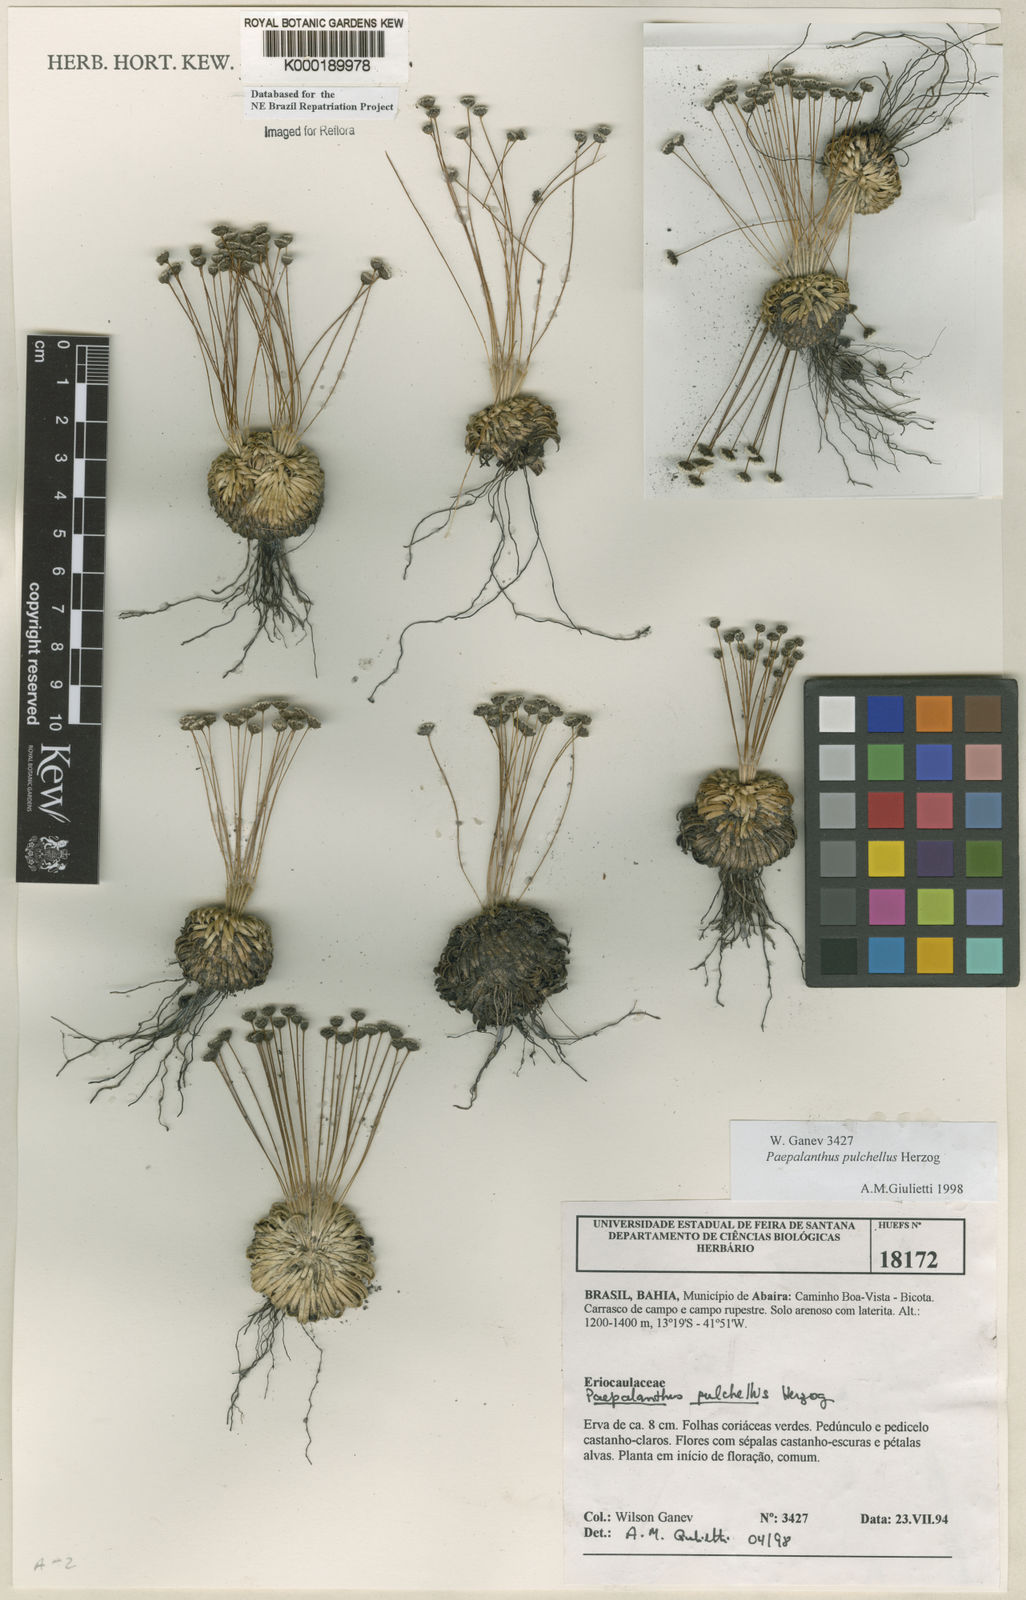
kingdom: Plantae
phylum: Tracheophyta
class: Liliopsida
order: Poales
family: Eriocaulaceae
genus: Paepalanthus
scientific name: Paepalanthus pulchellus
